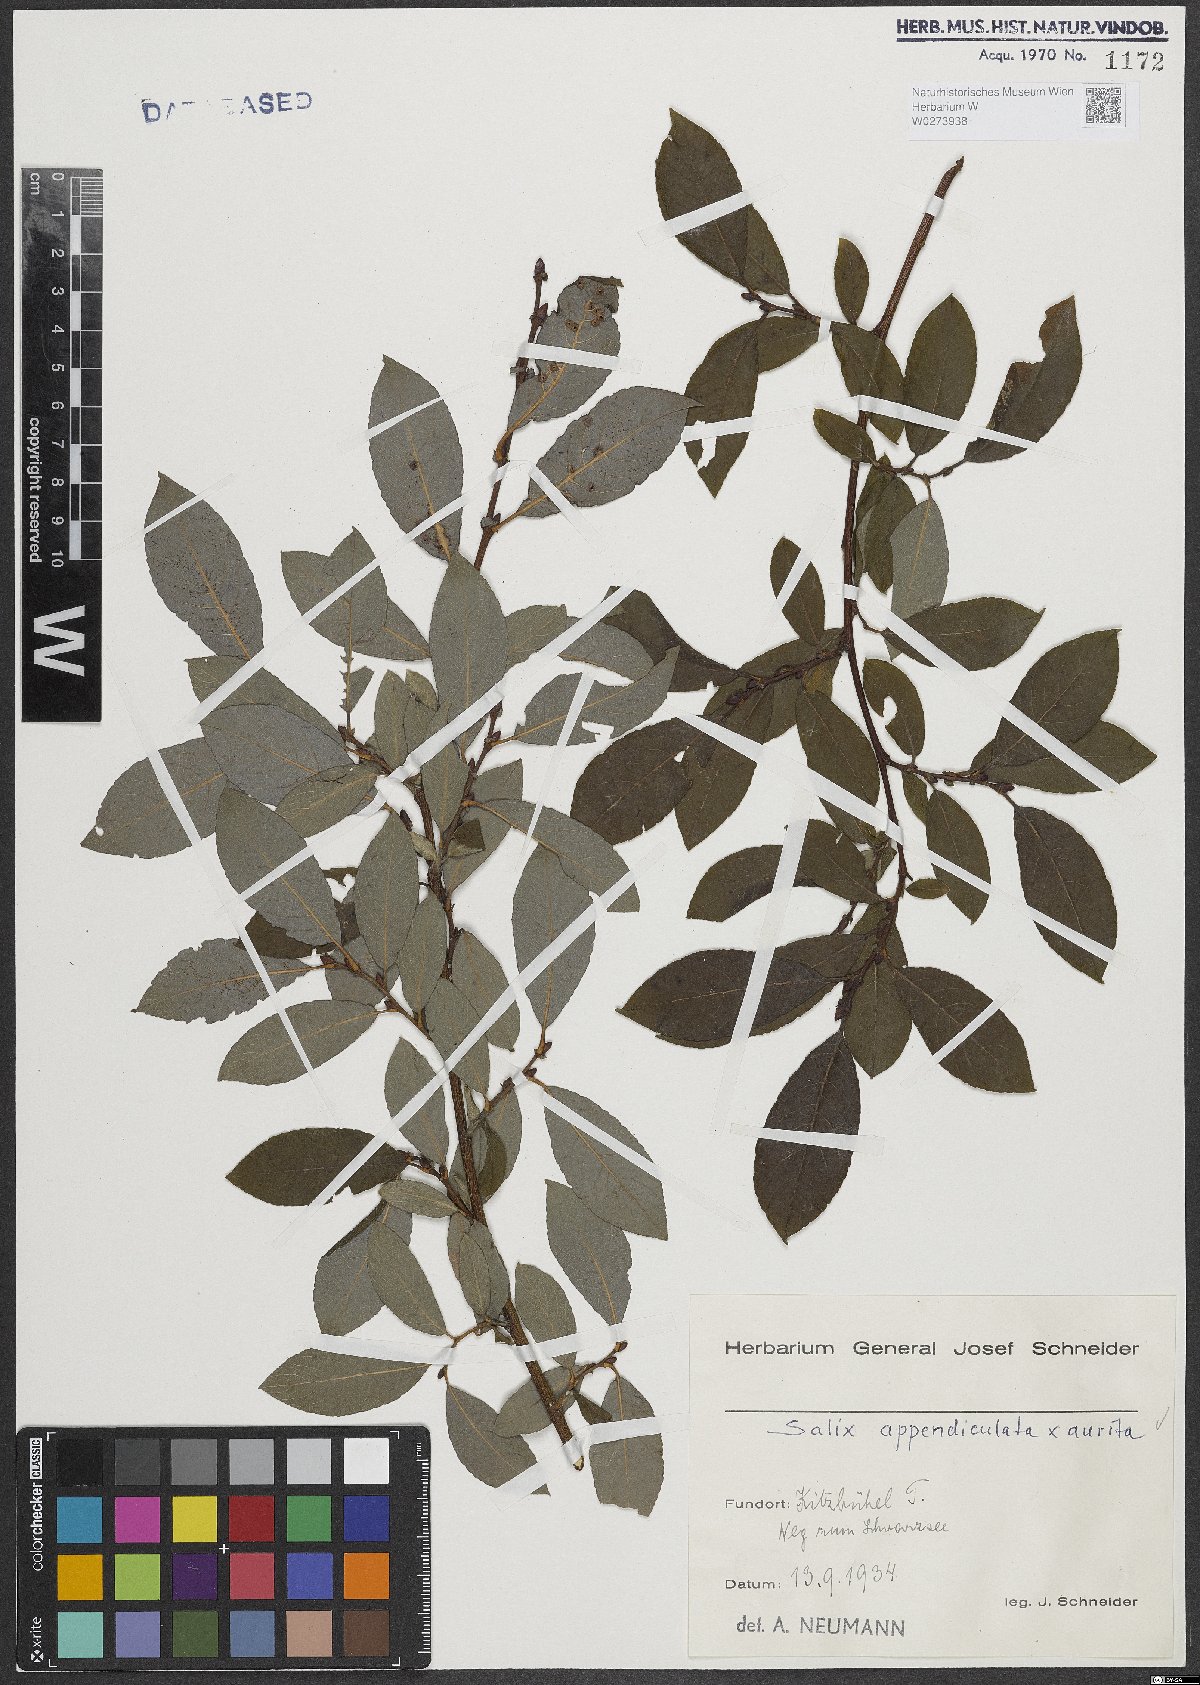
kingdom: Plantae
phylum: Tracheophyta
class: Magnoliopsida
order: Malpighiales
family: Salicaceae
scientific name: Salicaceae
